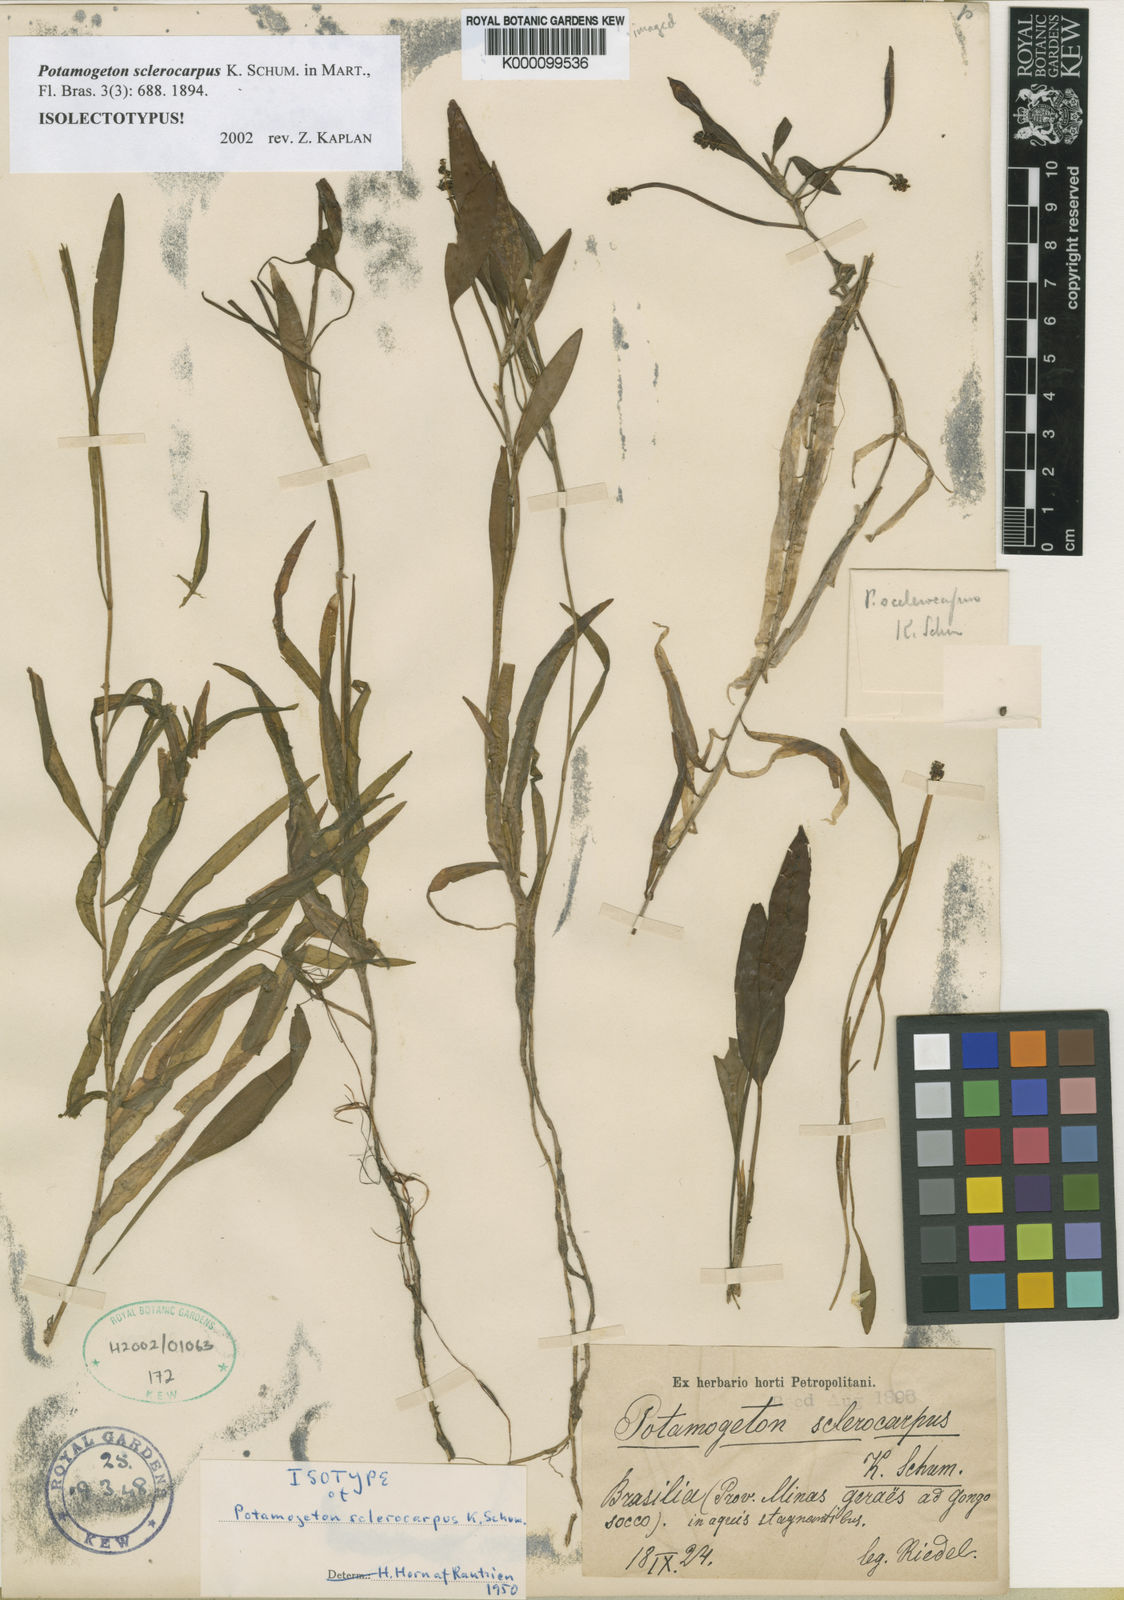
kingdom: Plantae
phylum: Tracheophyta
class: Liliopsida
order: Alismatales
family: Potamogetonaceae
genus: Potamogeton
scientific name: Potamogeton sclerocarpus
